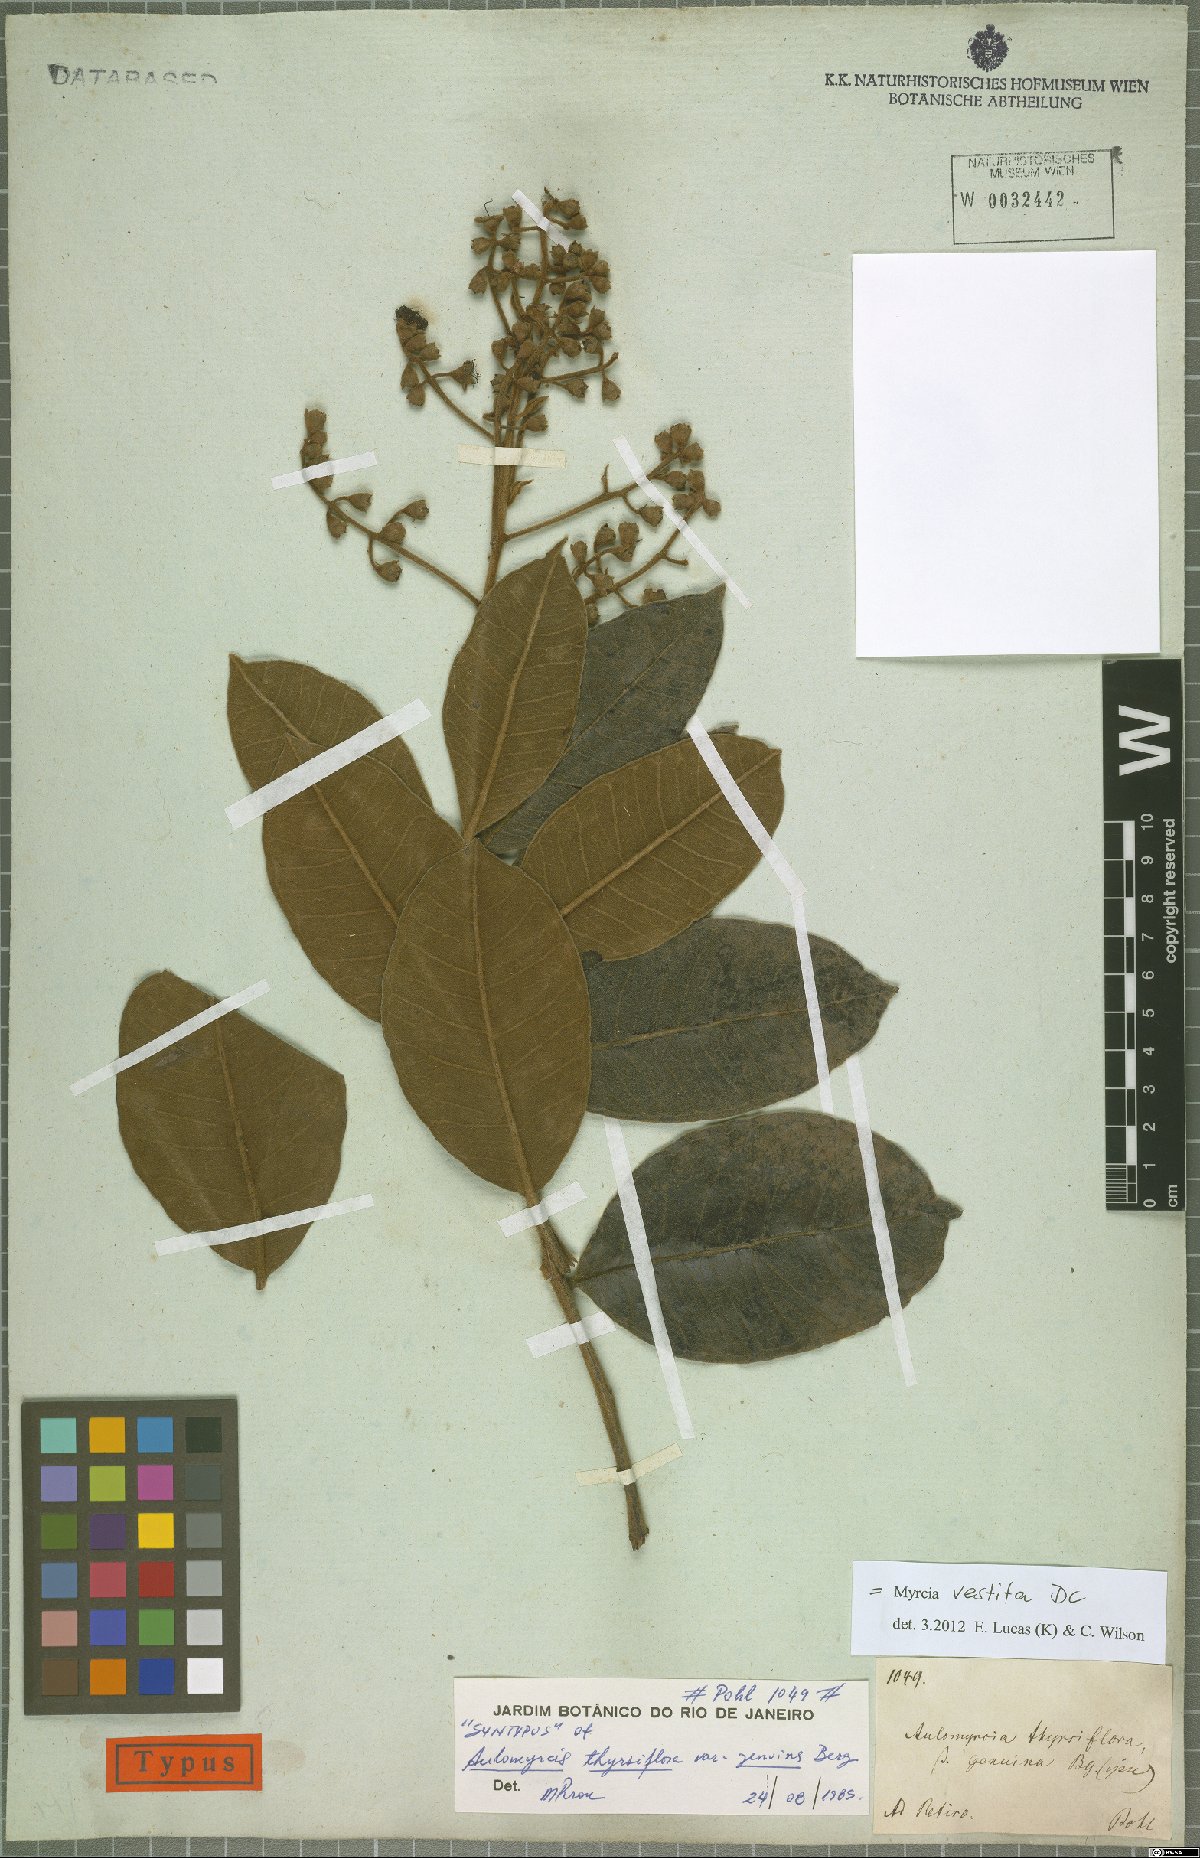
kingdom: Plantae
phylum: Tracheophyta
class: Magnoliopsida
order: Myrtales
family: Myrtaceae
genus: Myrcia
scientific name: Myrcia vestita
